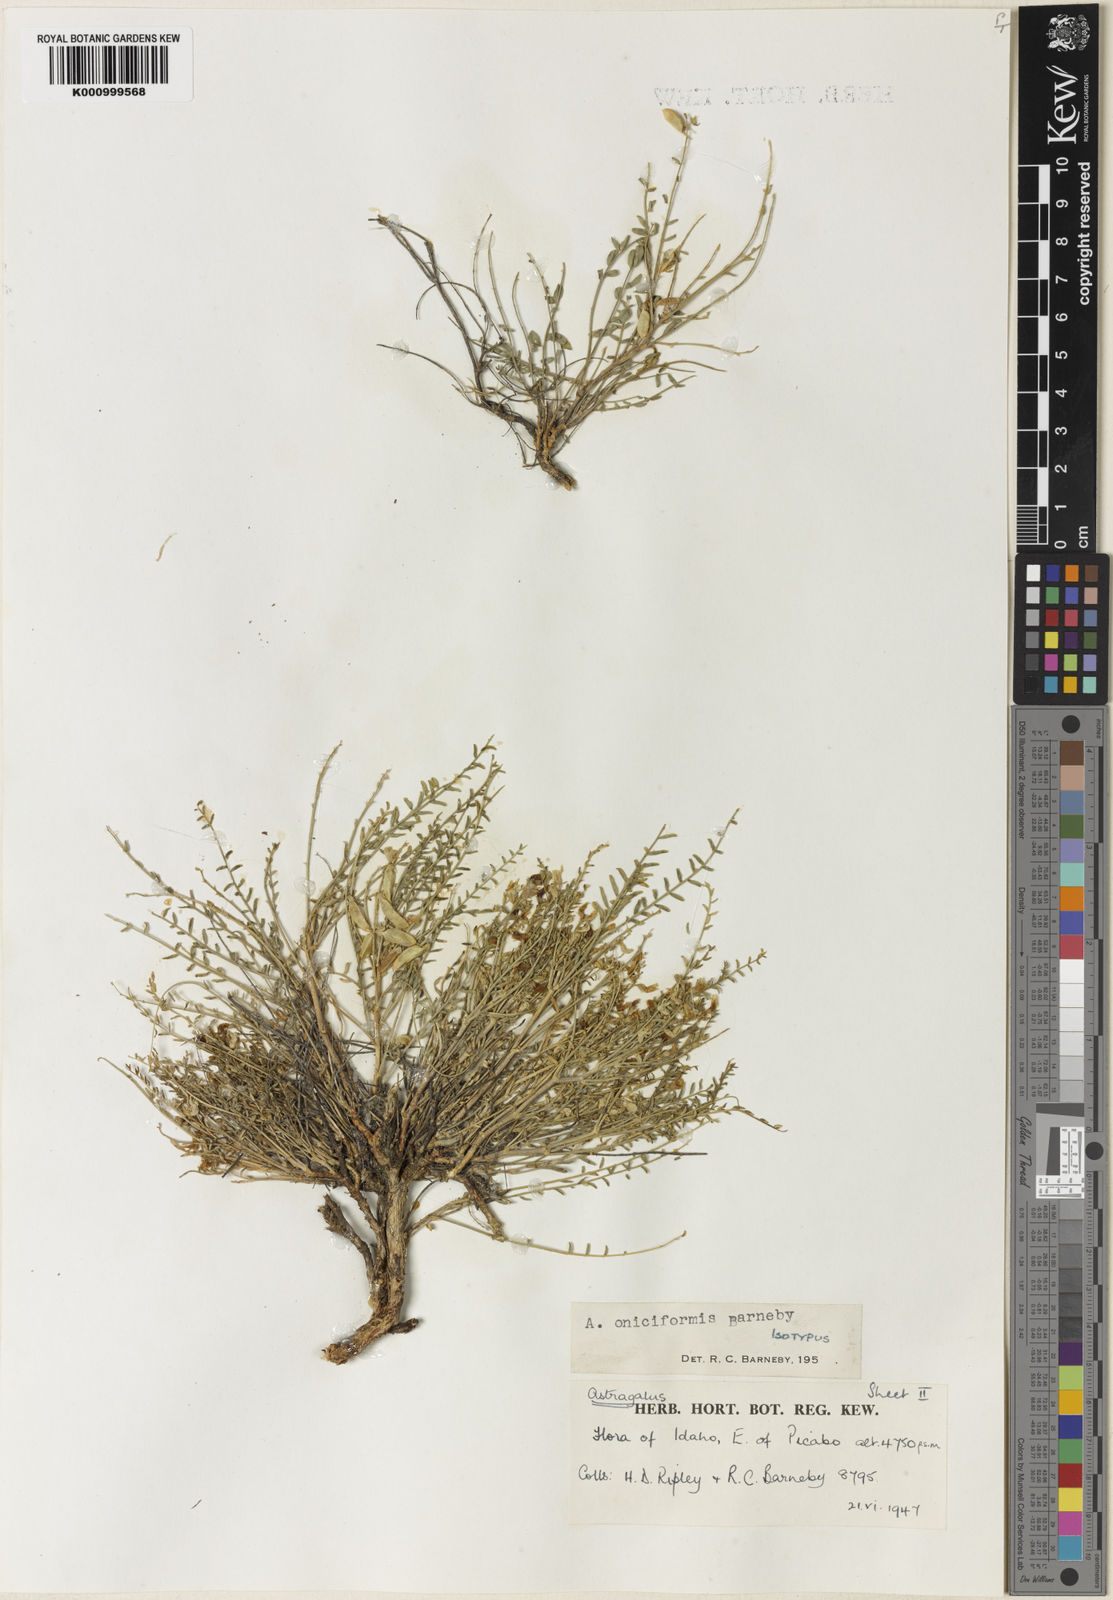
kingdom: Plantae
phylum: Tracheophyta
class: Magnoliopsida
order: Fabales
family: Fabaceae
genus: Astragalus
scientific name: Astragalus oniciformis
